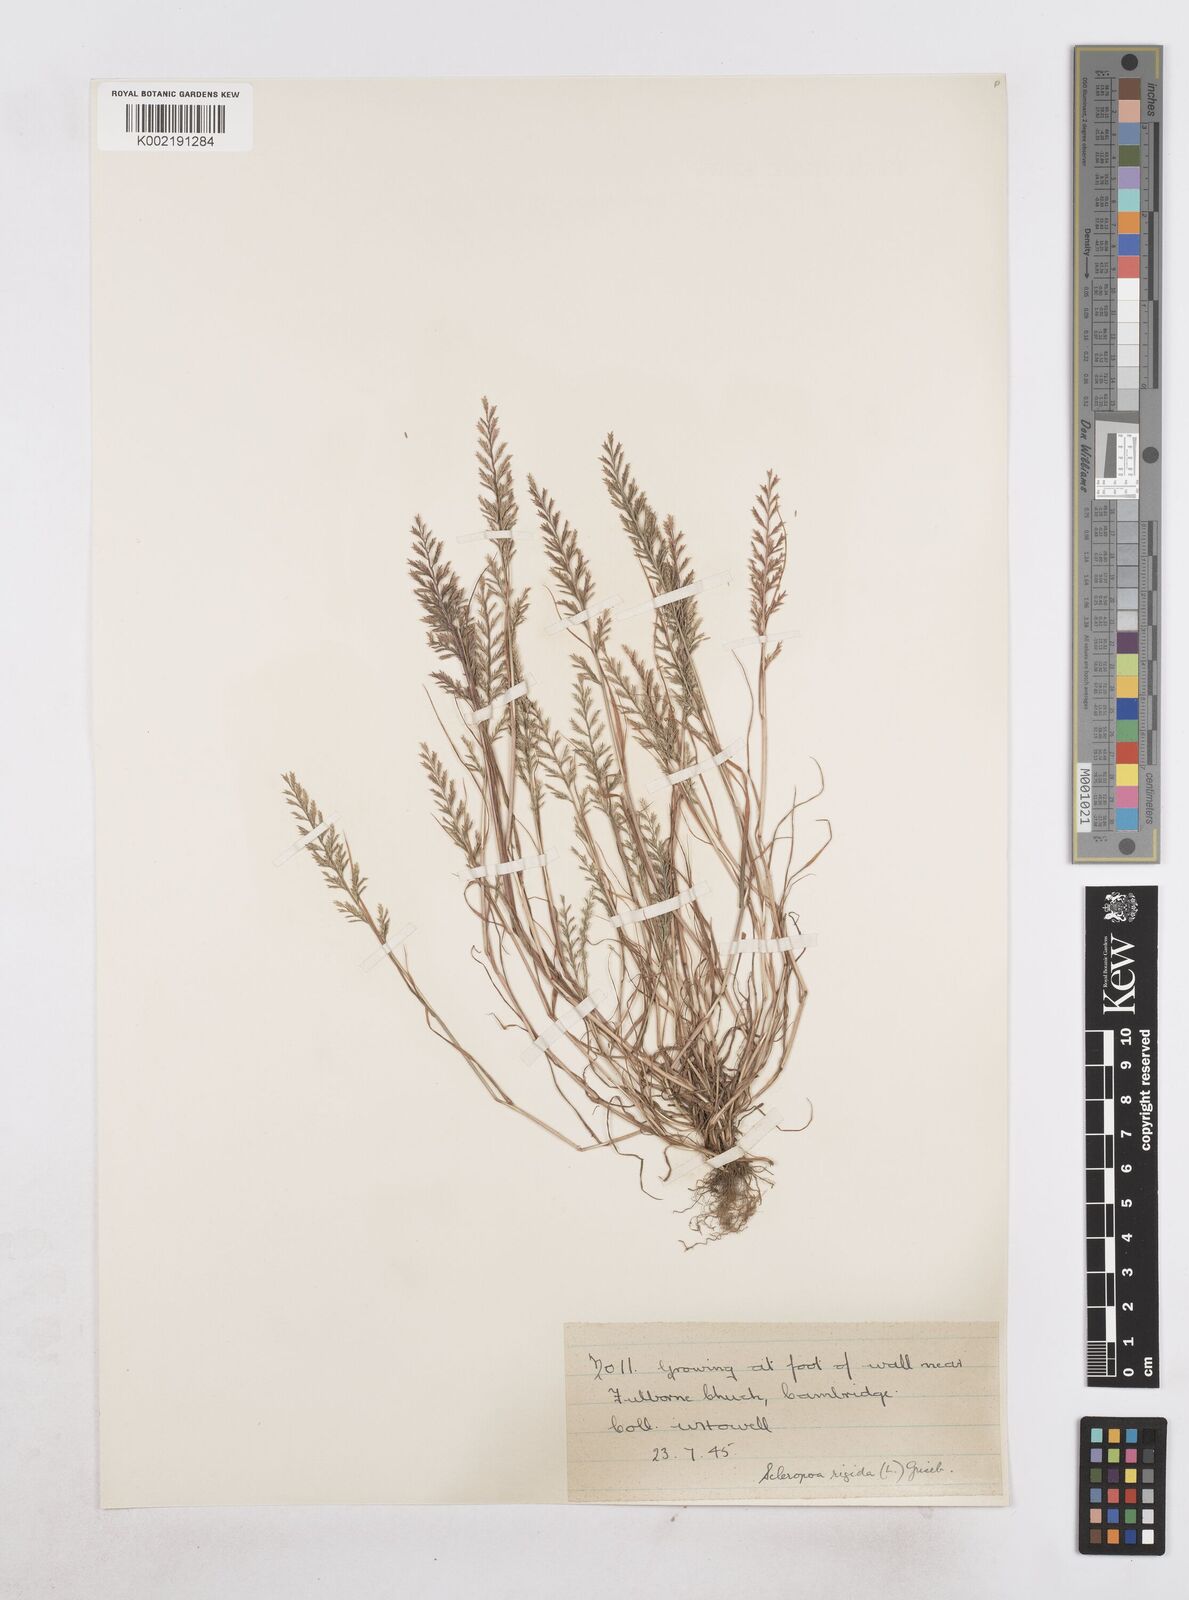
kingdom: Plantae
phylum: Tracheophyta
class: Liliopsida
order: Poales
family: Poaceae
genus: Catapodium
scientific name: Catapodium rigidum
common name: Fern-grass
